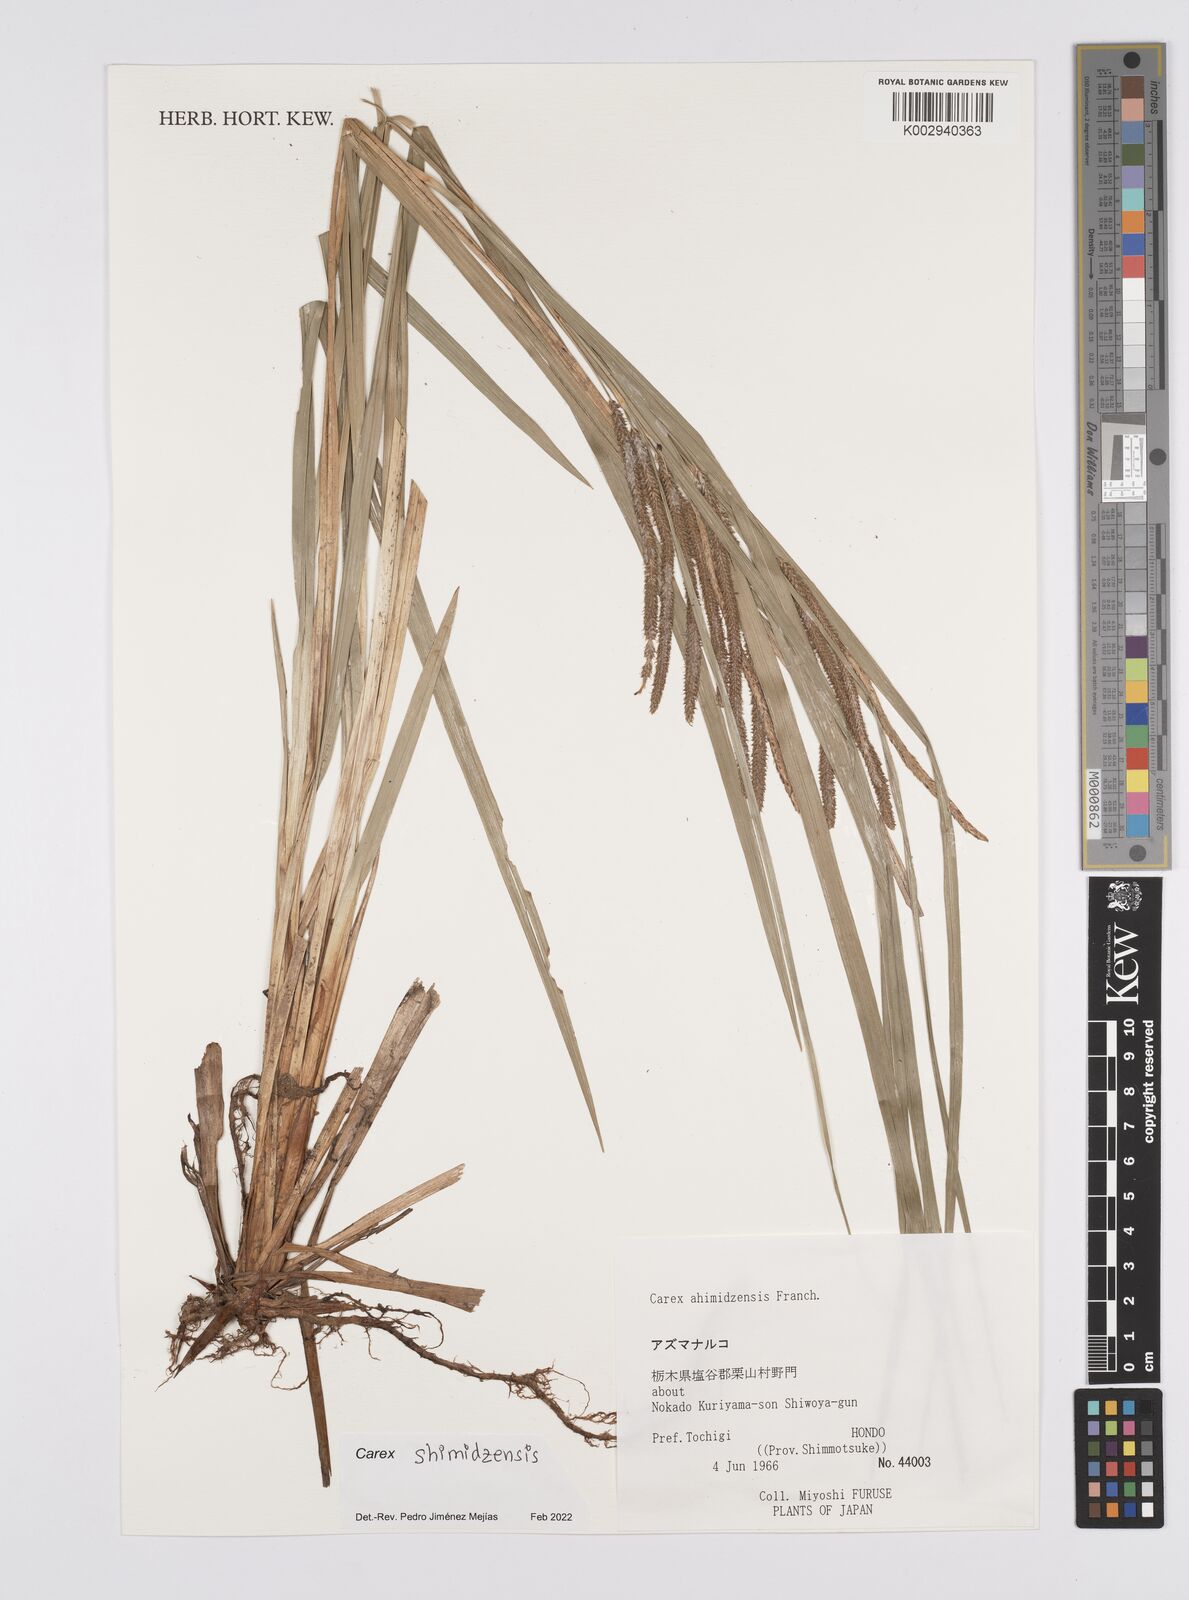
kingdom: Plantae
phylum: Tracheophyta
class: Liliopsida
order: Poales
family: Cyperaceae
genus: Carex
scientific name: Carex shimidzensis
